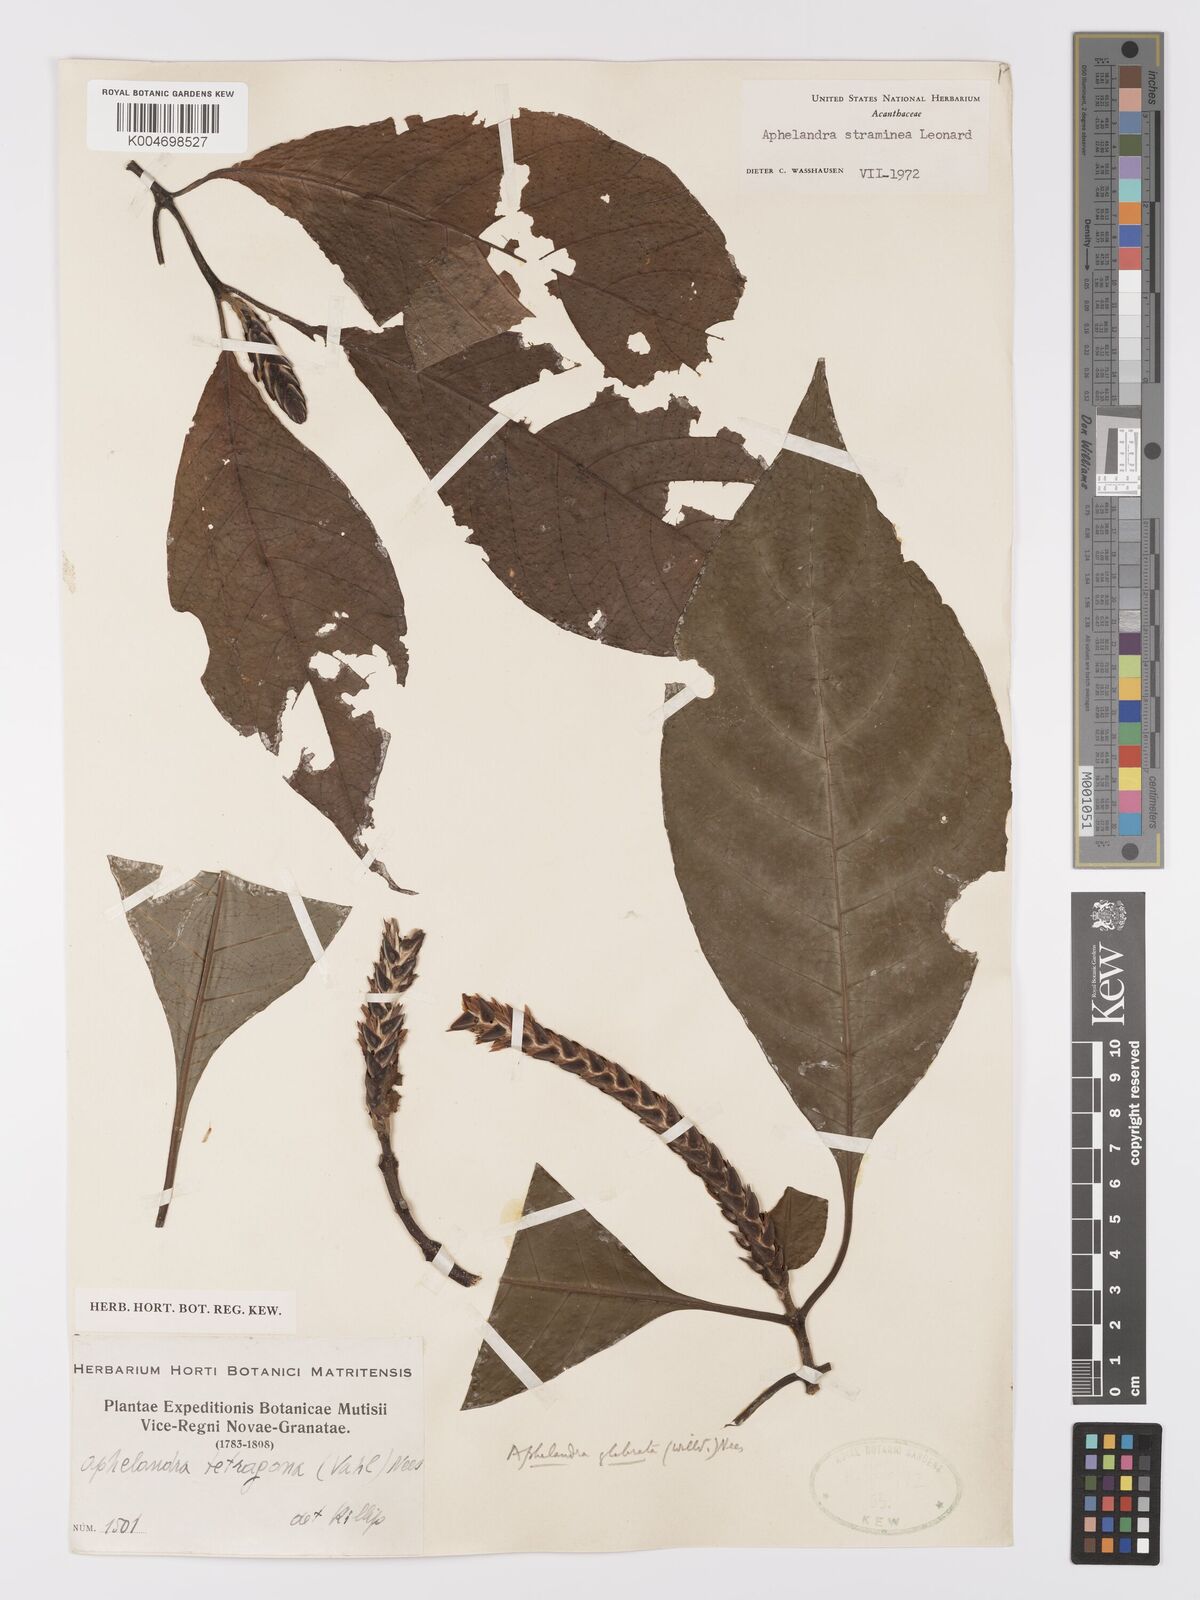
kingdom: Plantae
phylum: Tracheophyta
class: Magnoliopsida
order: Lamiales
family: Acanthaceae
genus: Aphelandra
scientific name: Aphelandra straminea
